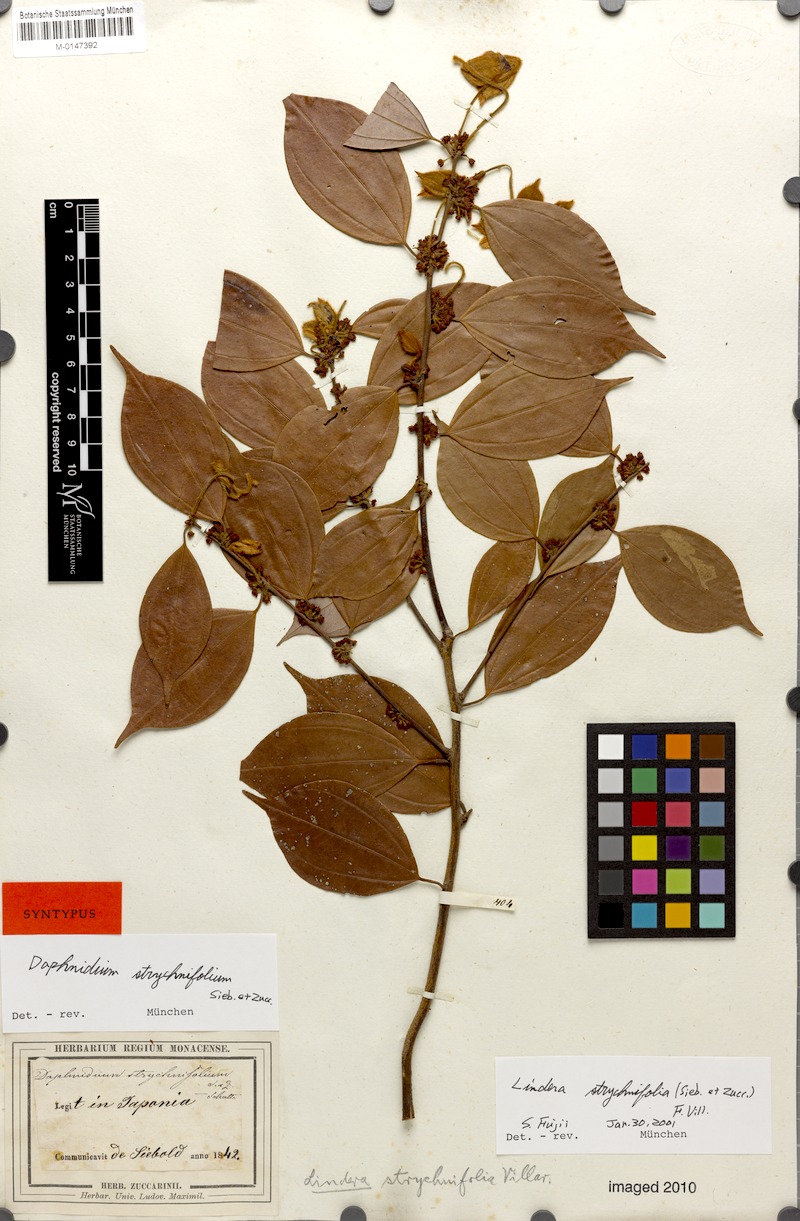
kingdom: Plantae
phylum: Tracheophyta
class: Magnoliopsida
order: Laurales
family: Lauraceae
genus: Lindera
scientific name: Lindera aggregata
